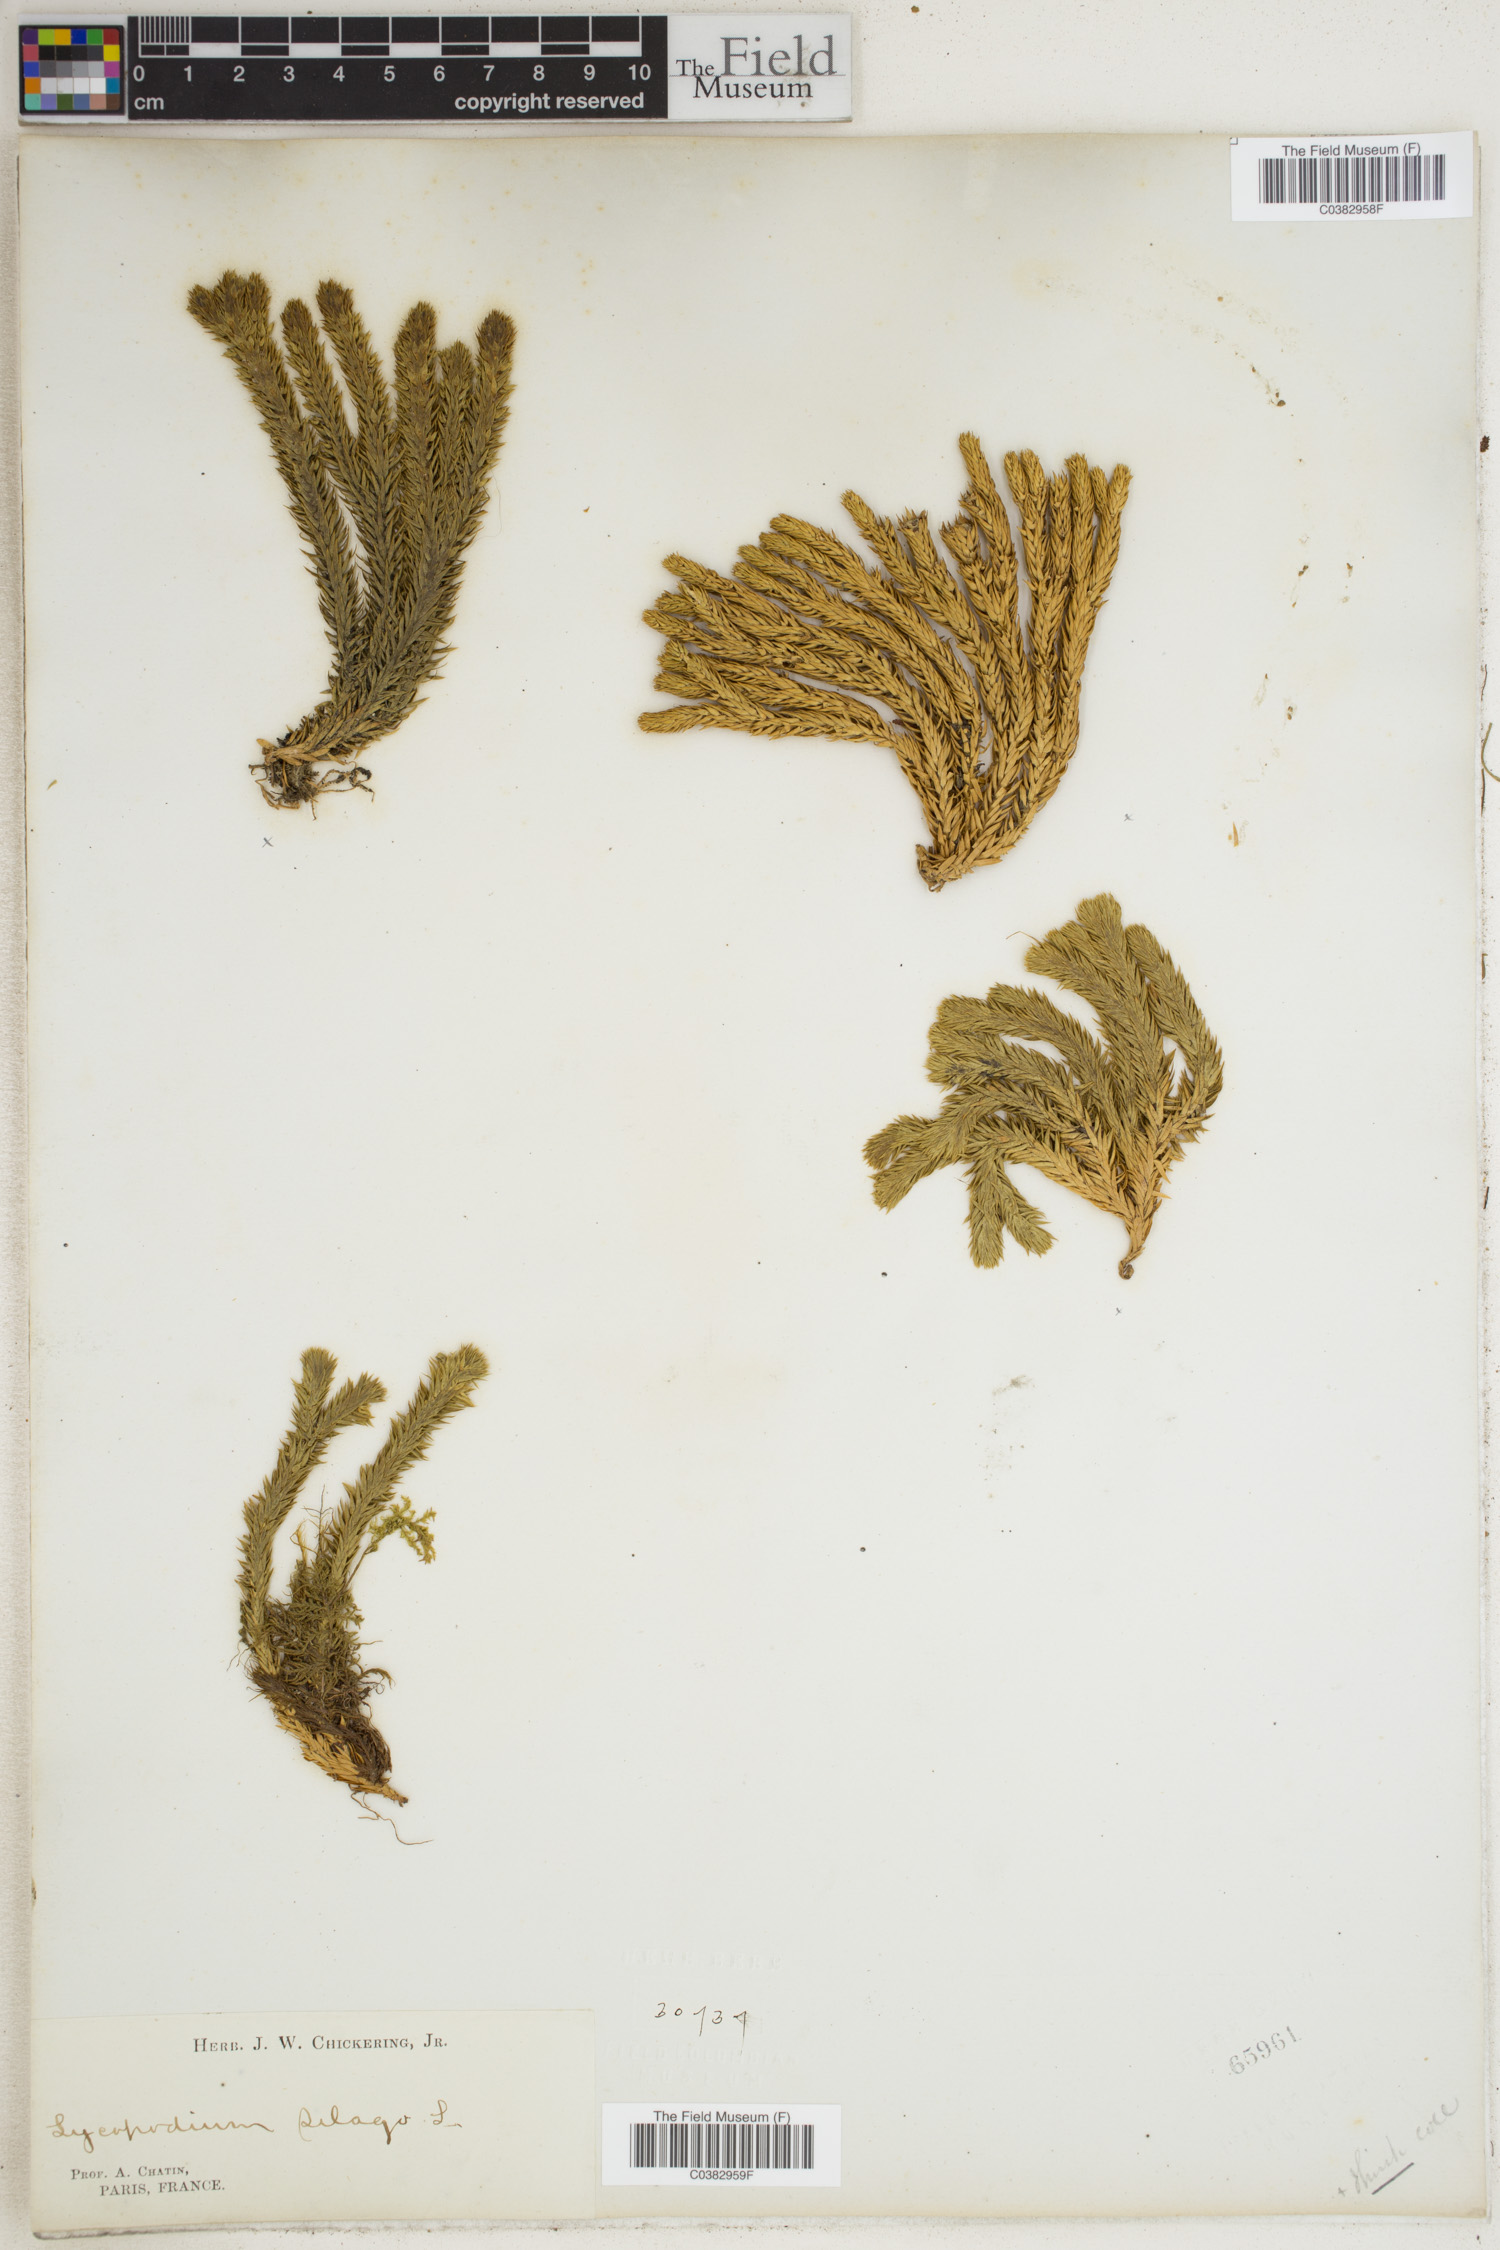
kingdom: Plantae
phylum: Tracheophyta
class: Lycopodiopsida
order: Lycopodiales
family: Lycopodiaceae
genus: Huperzia
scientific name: Huperzia selago
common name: Northern firmoss
